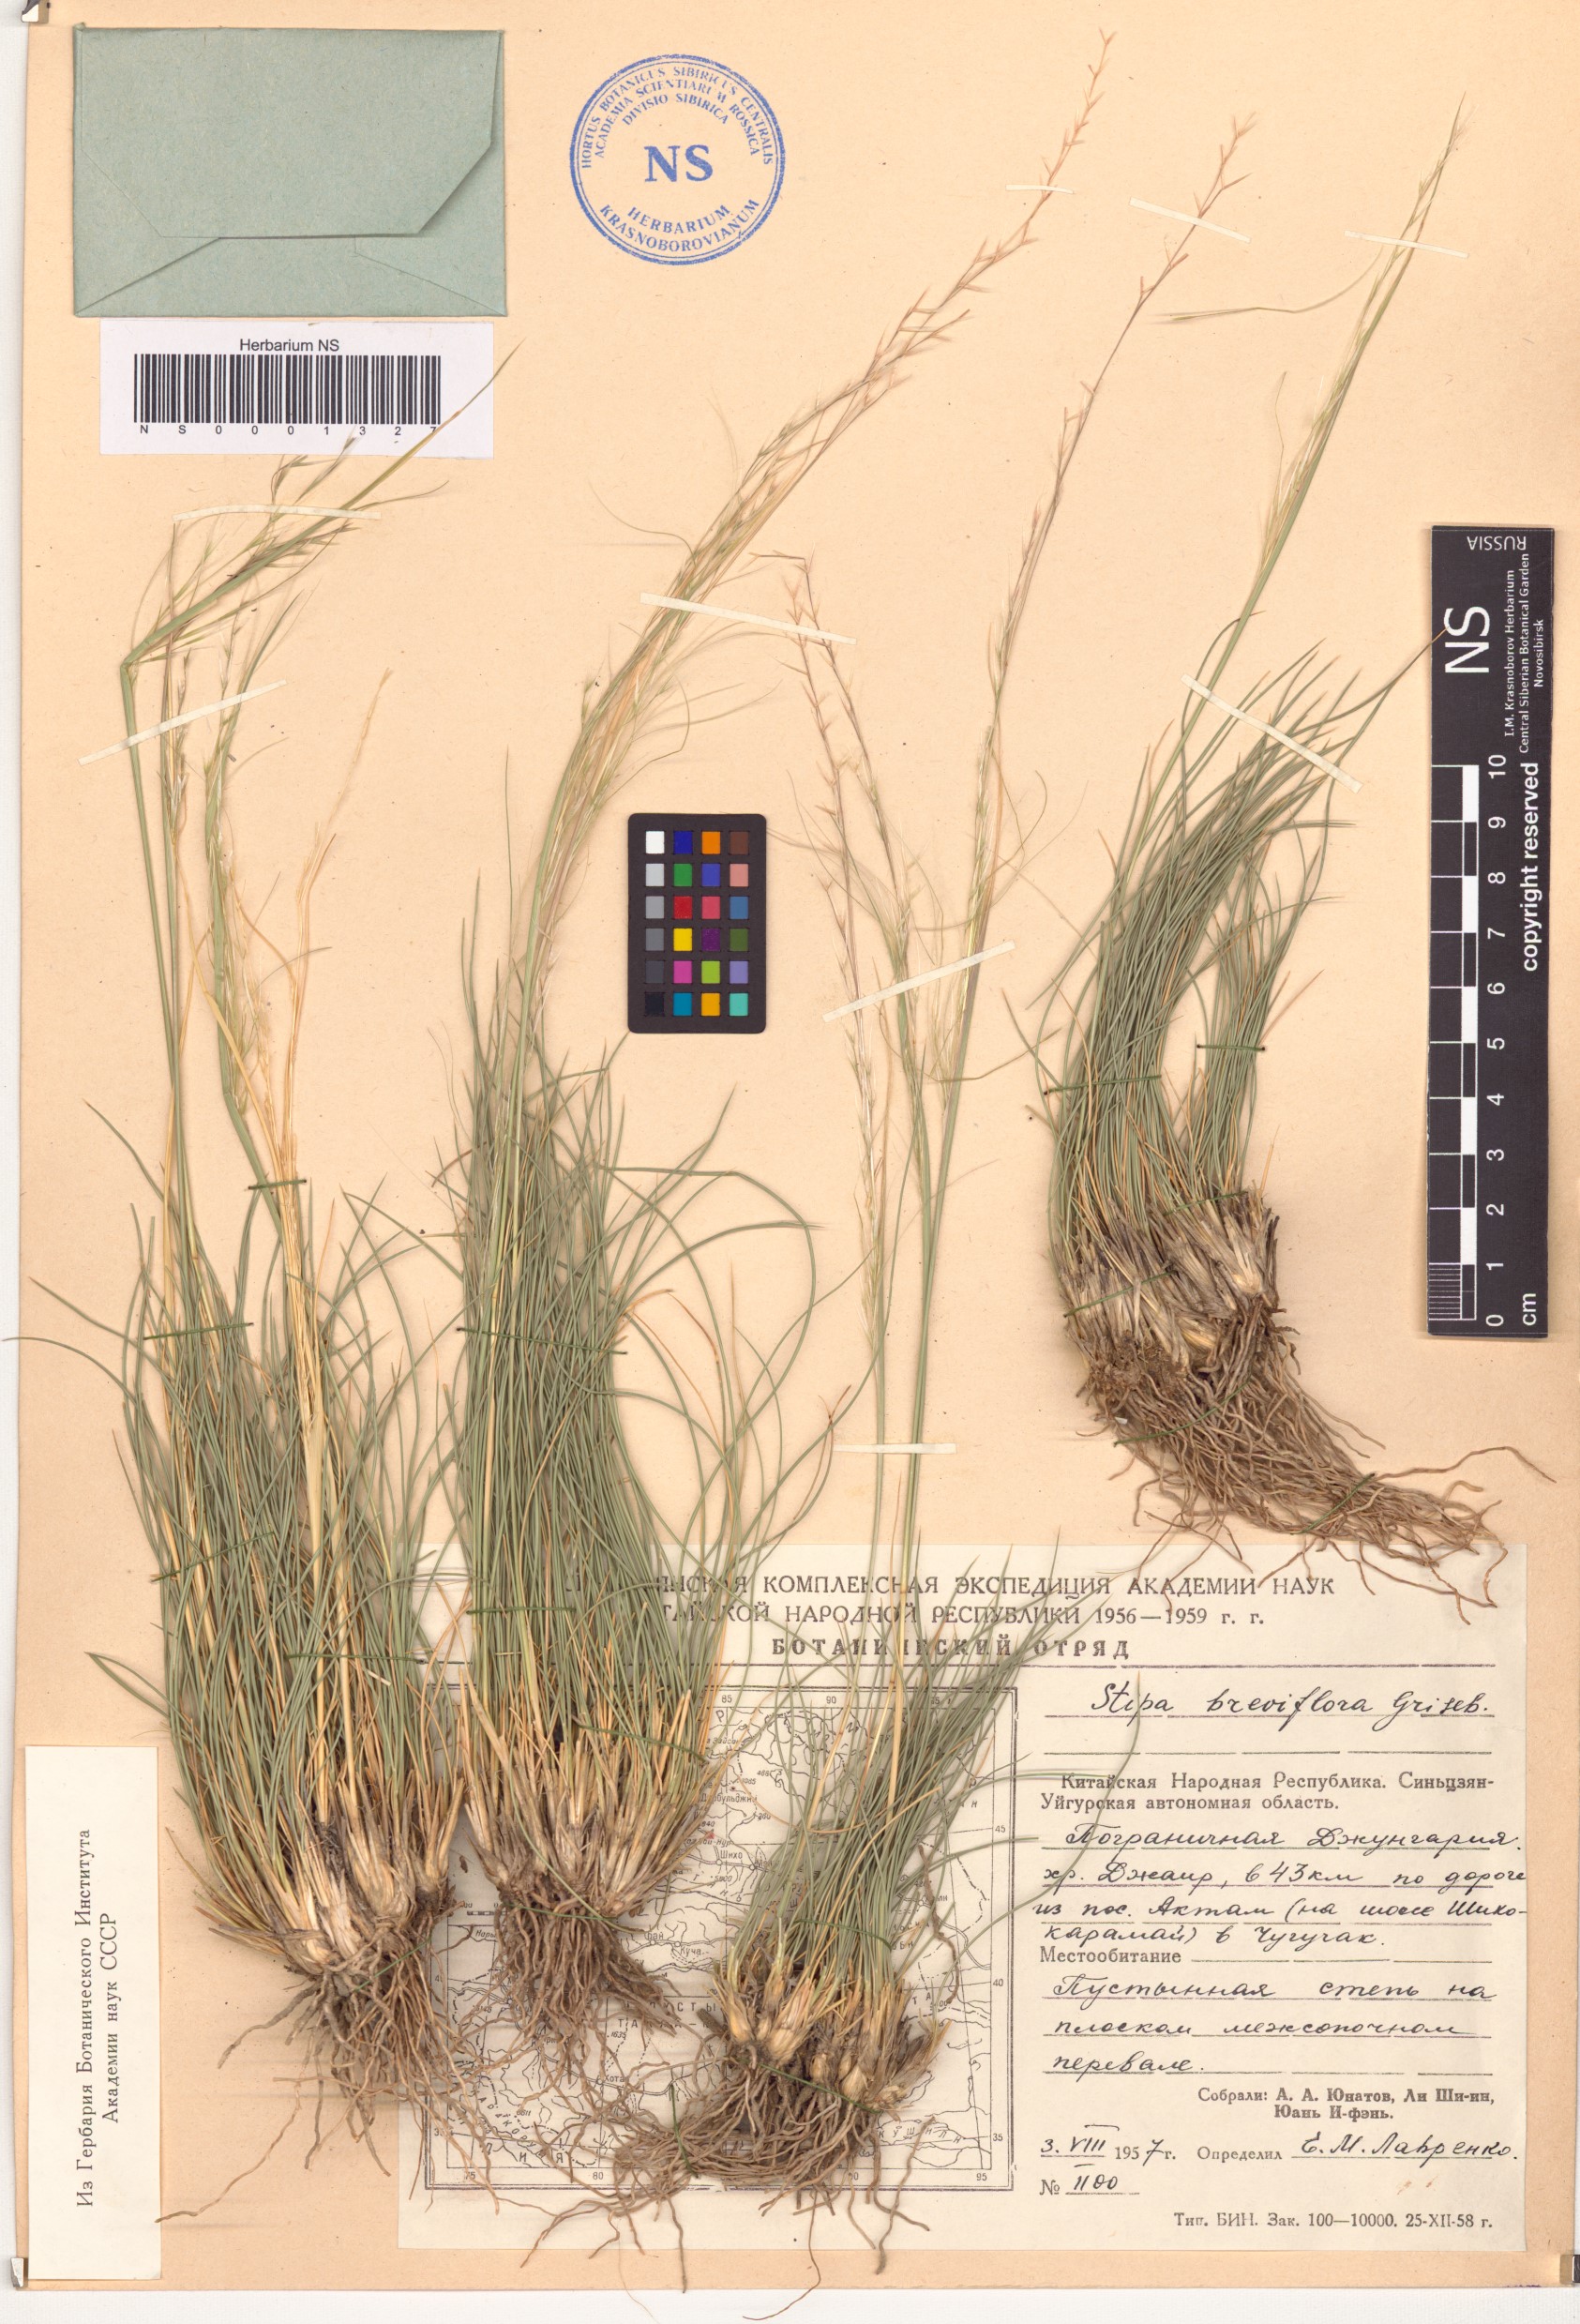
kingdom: Plantae
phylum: Tracheophyta
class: Liliopsida
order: Poales
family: Poaceae
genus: Stipa
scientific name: Stipa breviflora
